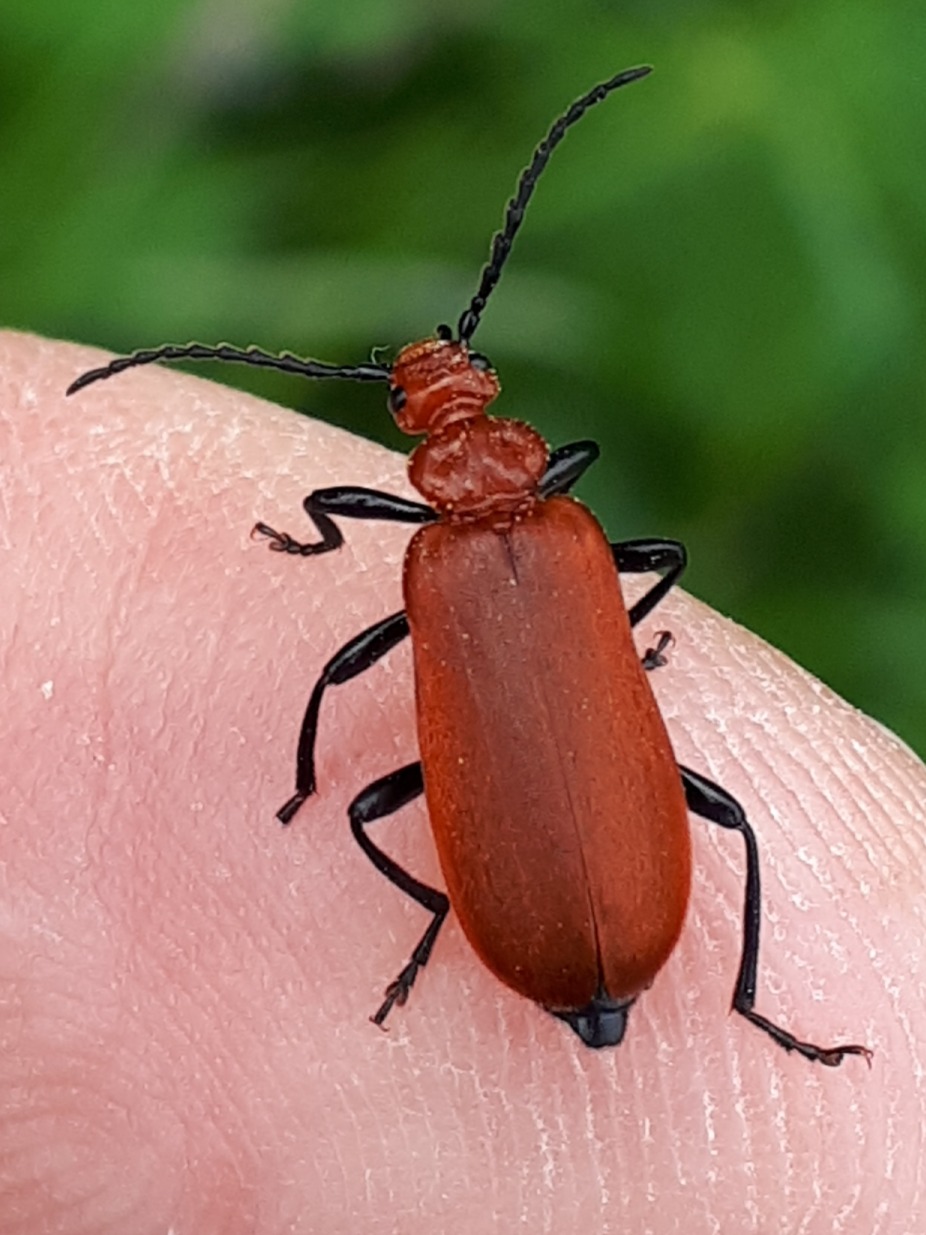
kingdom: Animalia
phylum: Arthropoda
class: Insecta
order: Coleoptera
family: Pyrochroidae
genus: Pyrochroa
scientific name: Pyrochroa serraticornis
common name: Rødhovedet kardinalbille
